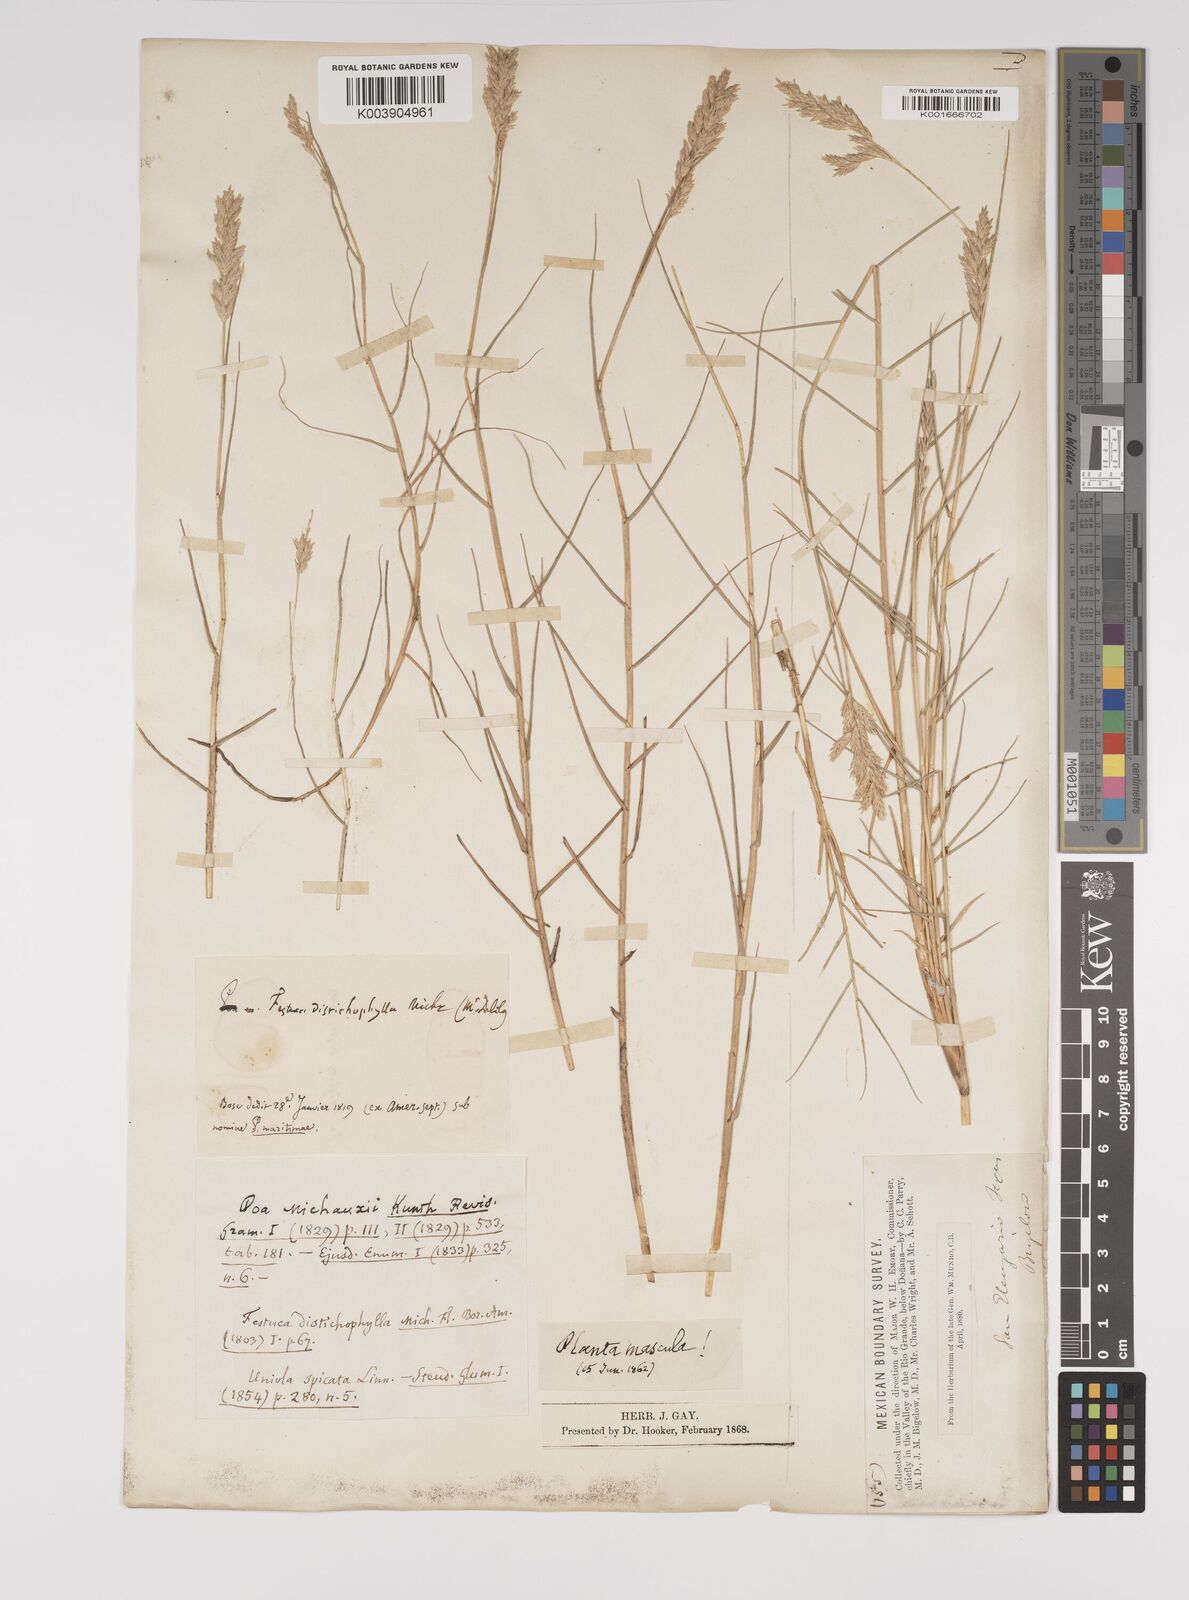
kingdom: Plantae
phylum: Tracheophyta
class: Liliopsida
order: Poales
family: Poaceae
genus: Distichlis
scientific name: Distichlis spicata
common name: Saltgrass
